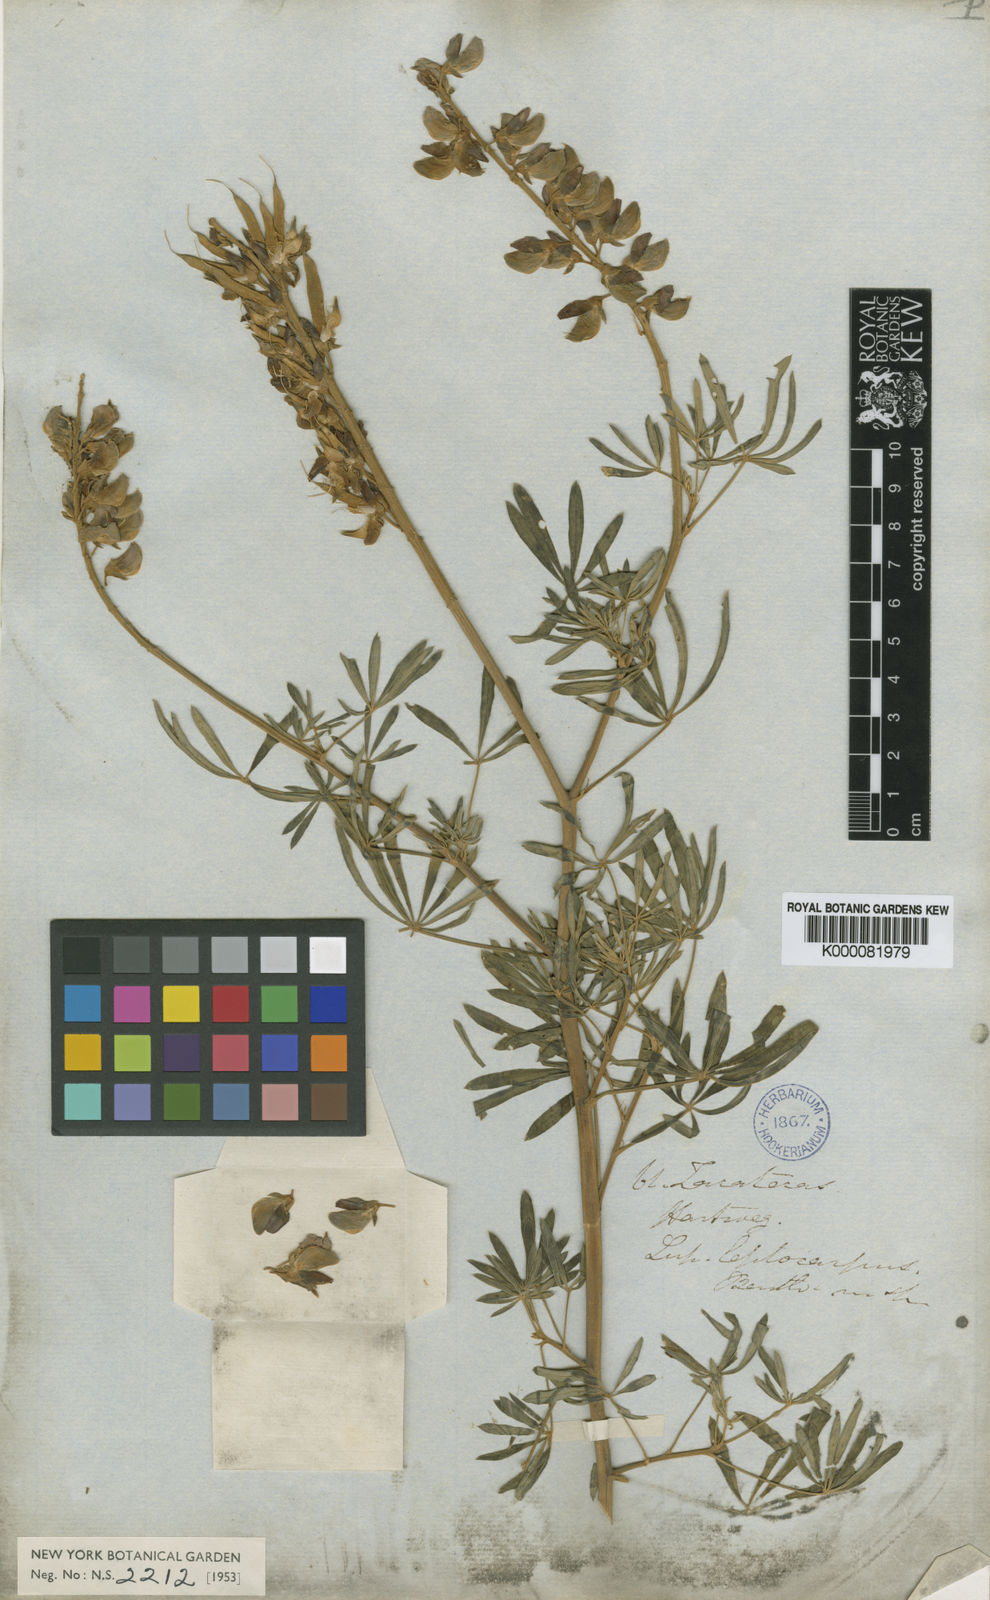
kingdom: Plantae
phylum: Tracheophyta
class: Magnoliopsida
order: Fabales
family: Fabaceae
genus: Lupinus
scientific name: Lupinus leptocarpus
